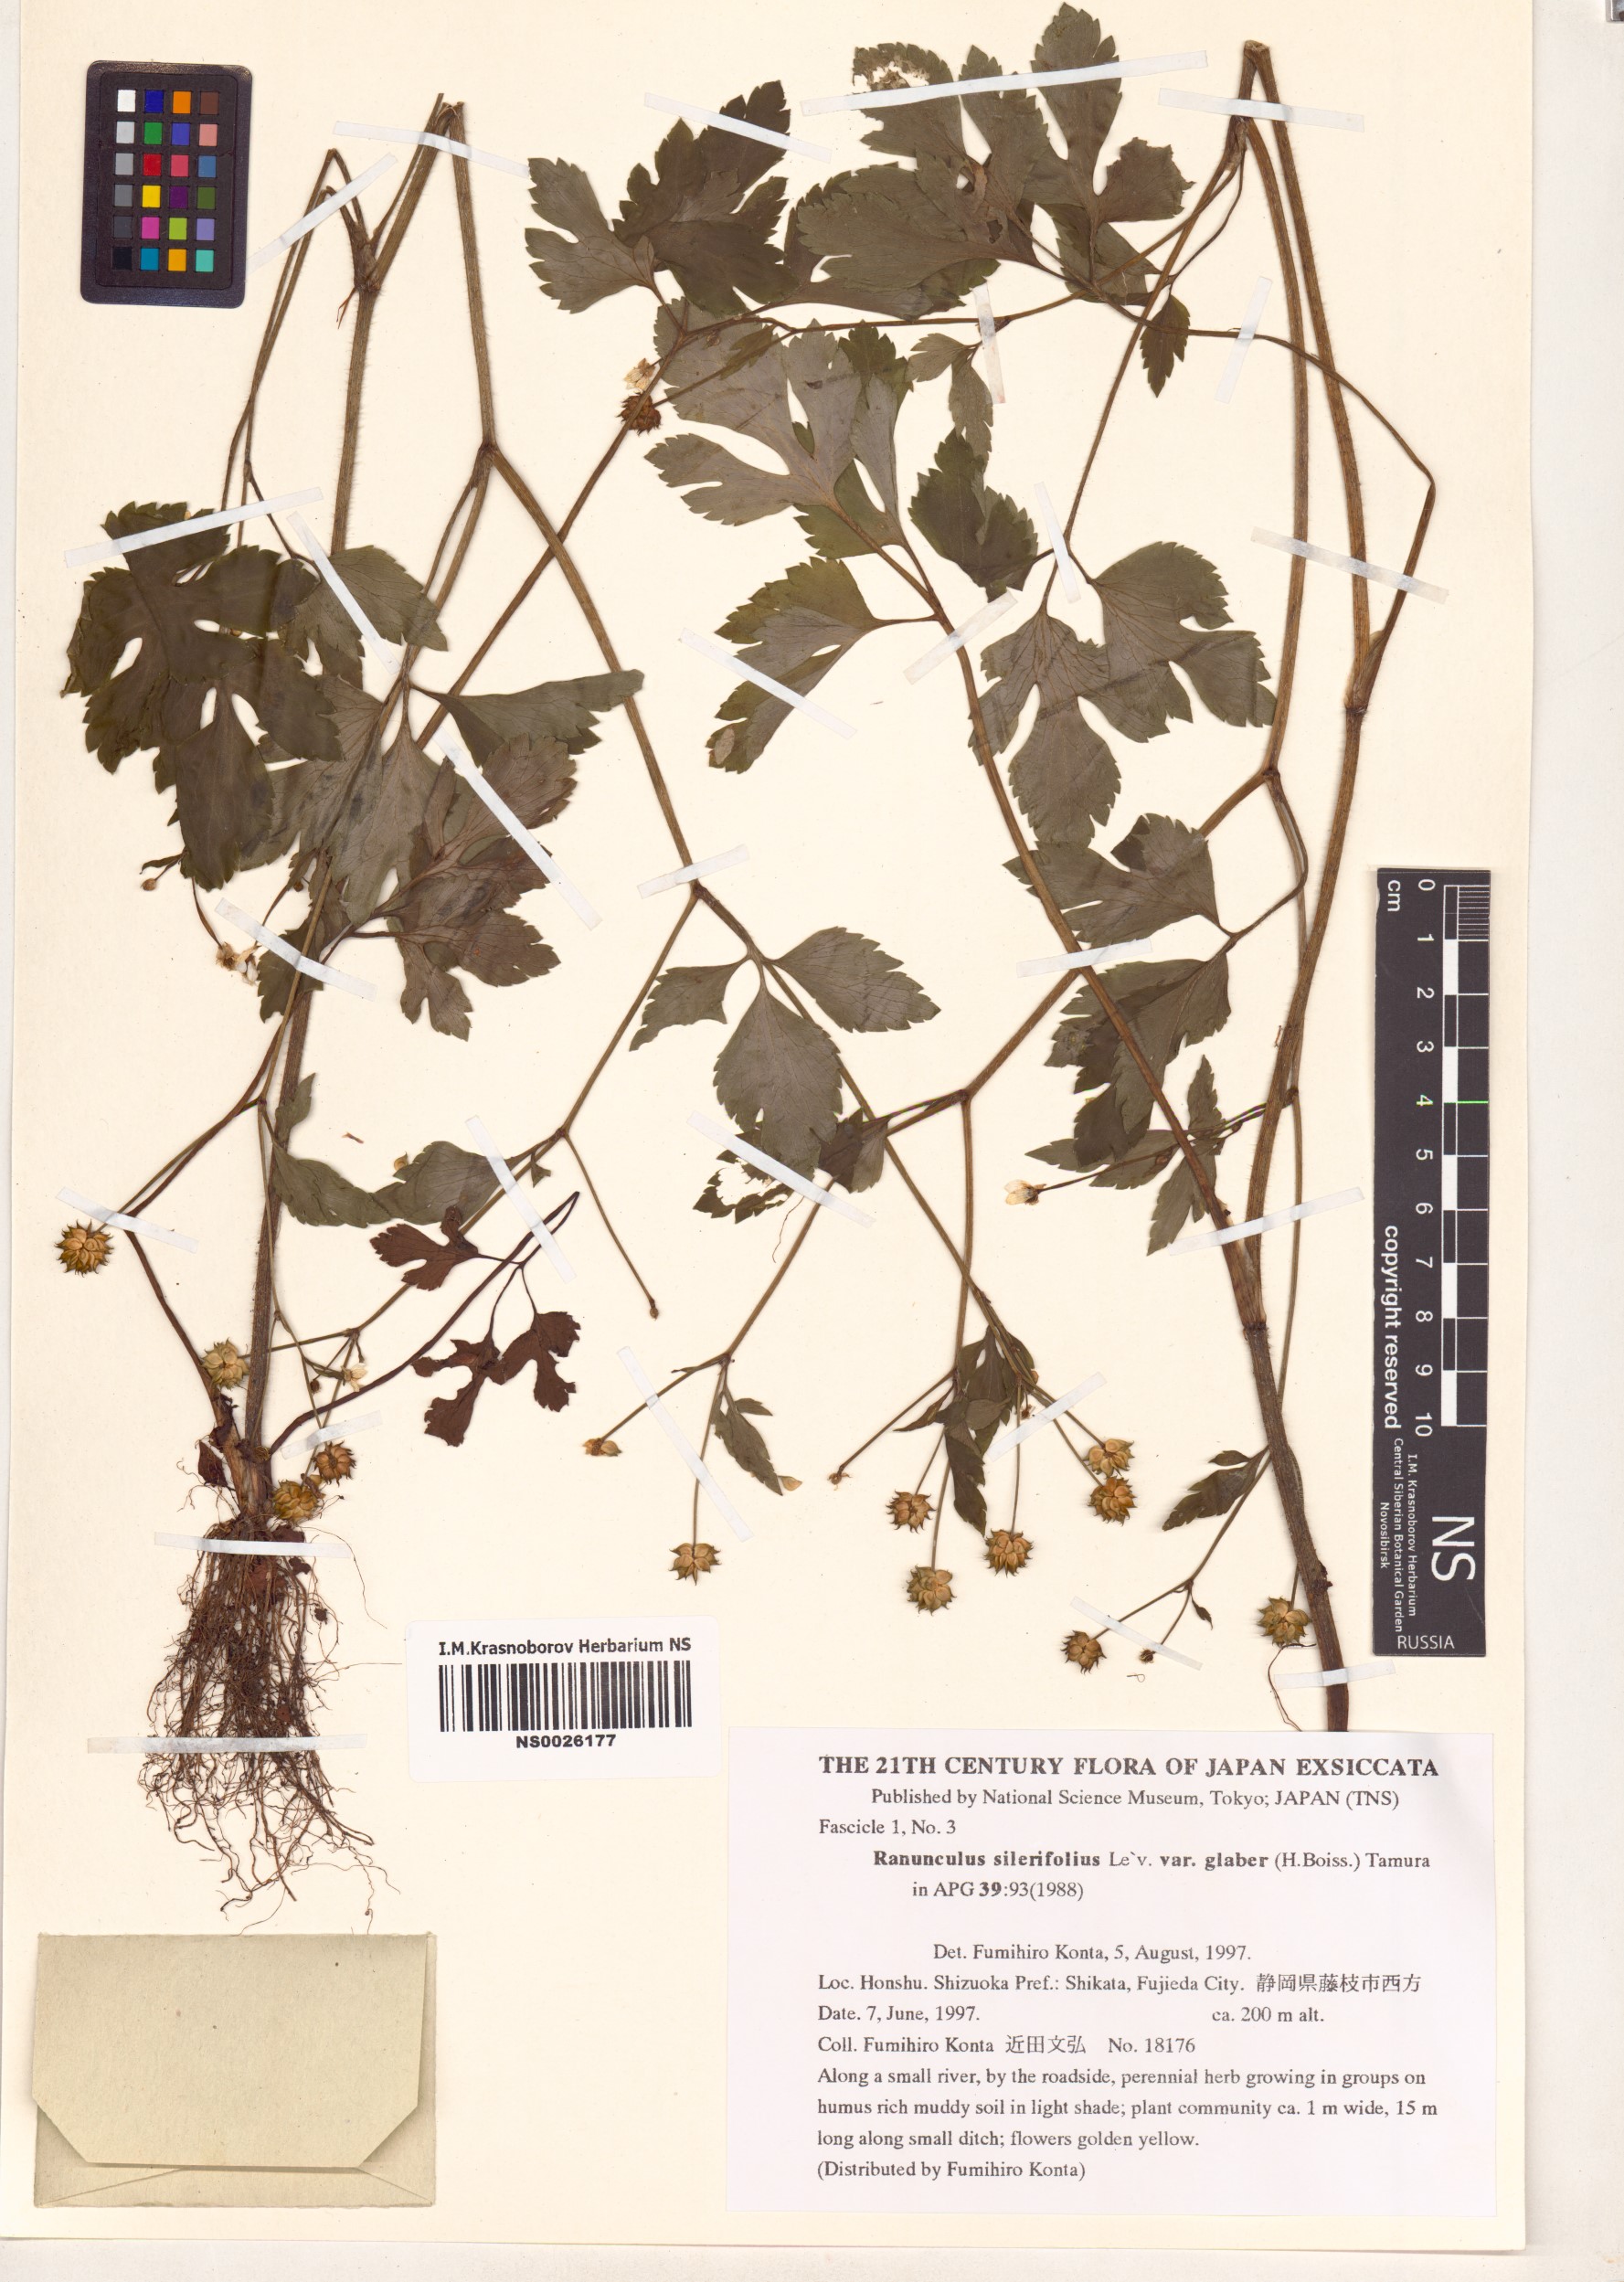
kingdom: Plantae
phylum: Tracheophyta
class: Magnoliopsida
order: Ranunculales
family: Ranunculaceae
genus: Ranunculus
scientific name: Ranunculus silerifolius
